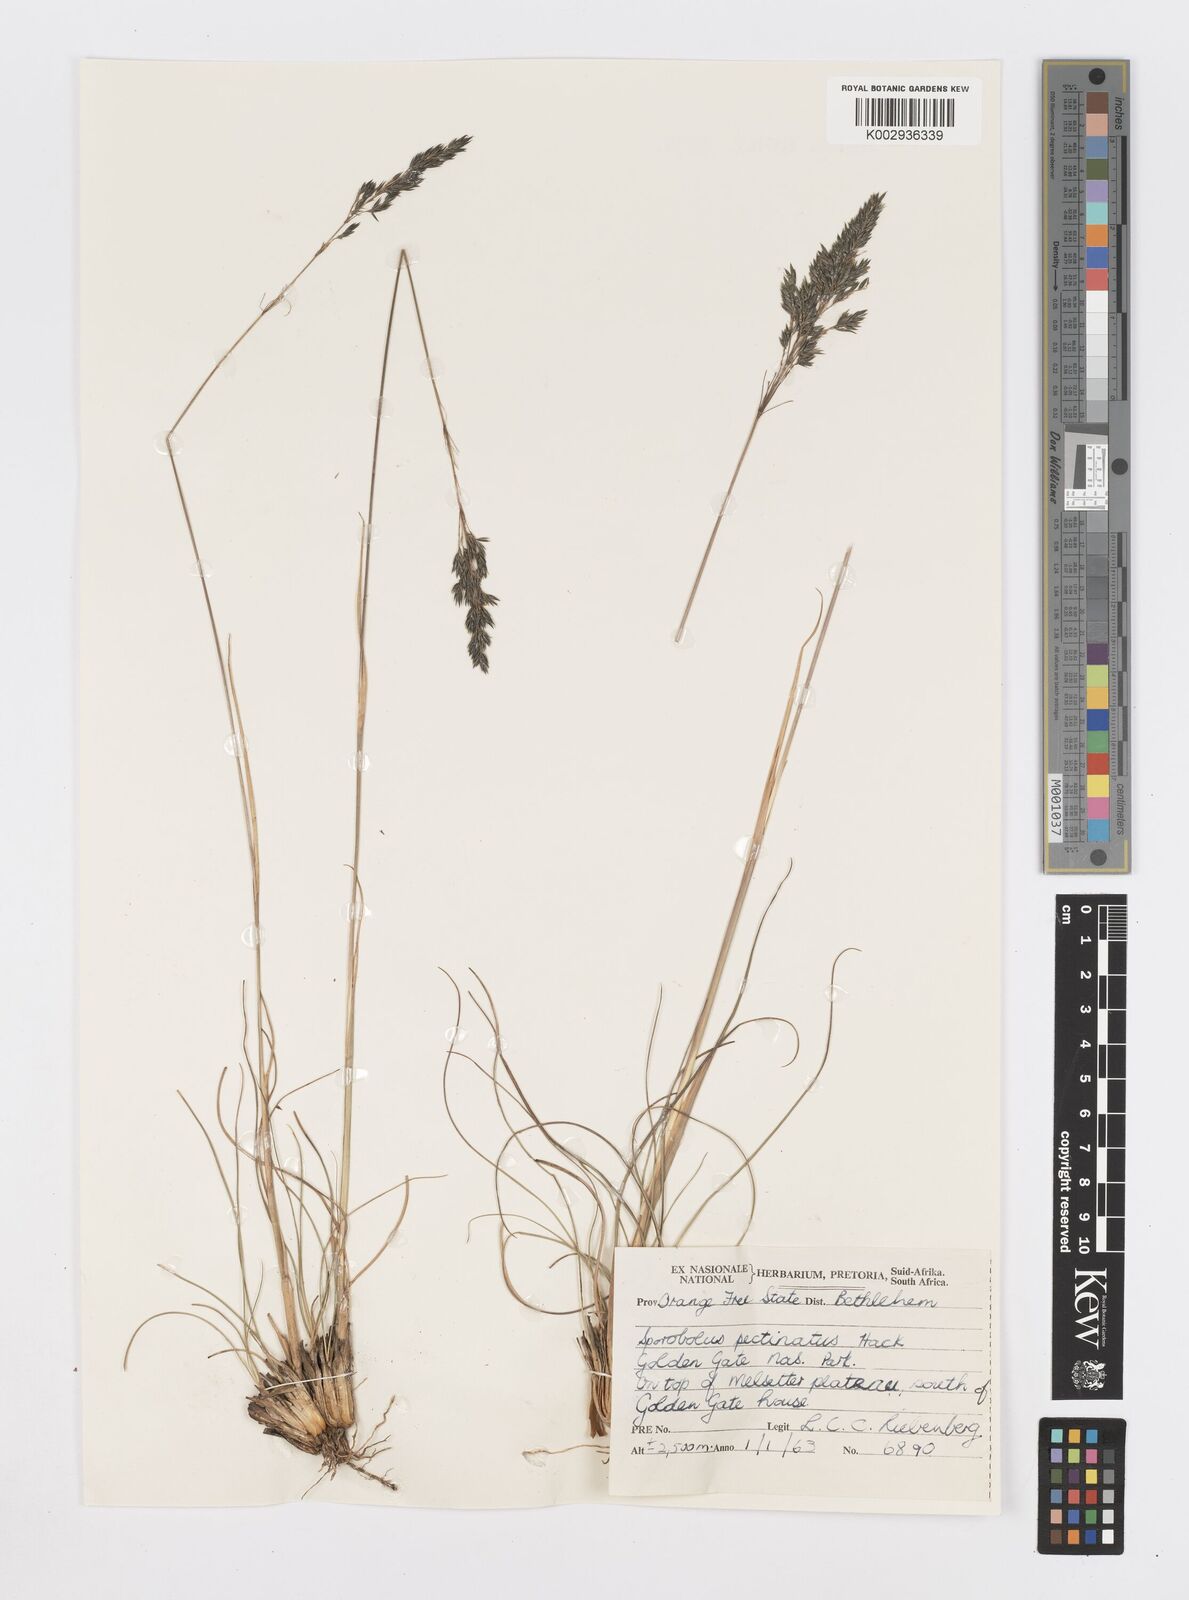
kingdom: Plantae
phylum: Tracheophyta
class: Liliopsida
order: Poales
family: Poaceae
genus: Sporobolus
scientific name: Sporobolus centrifugus
